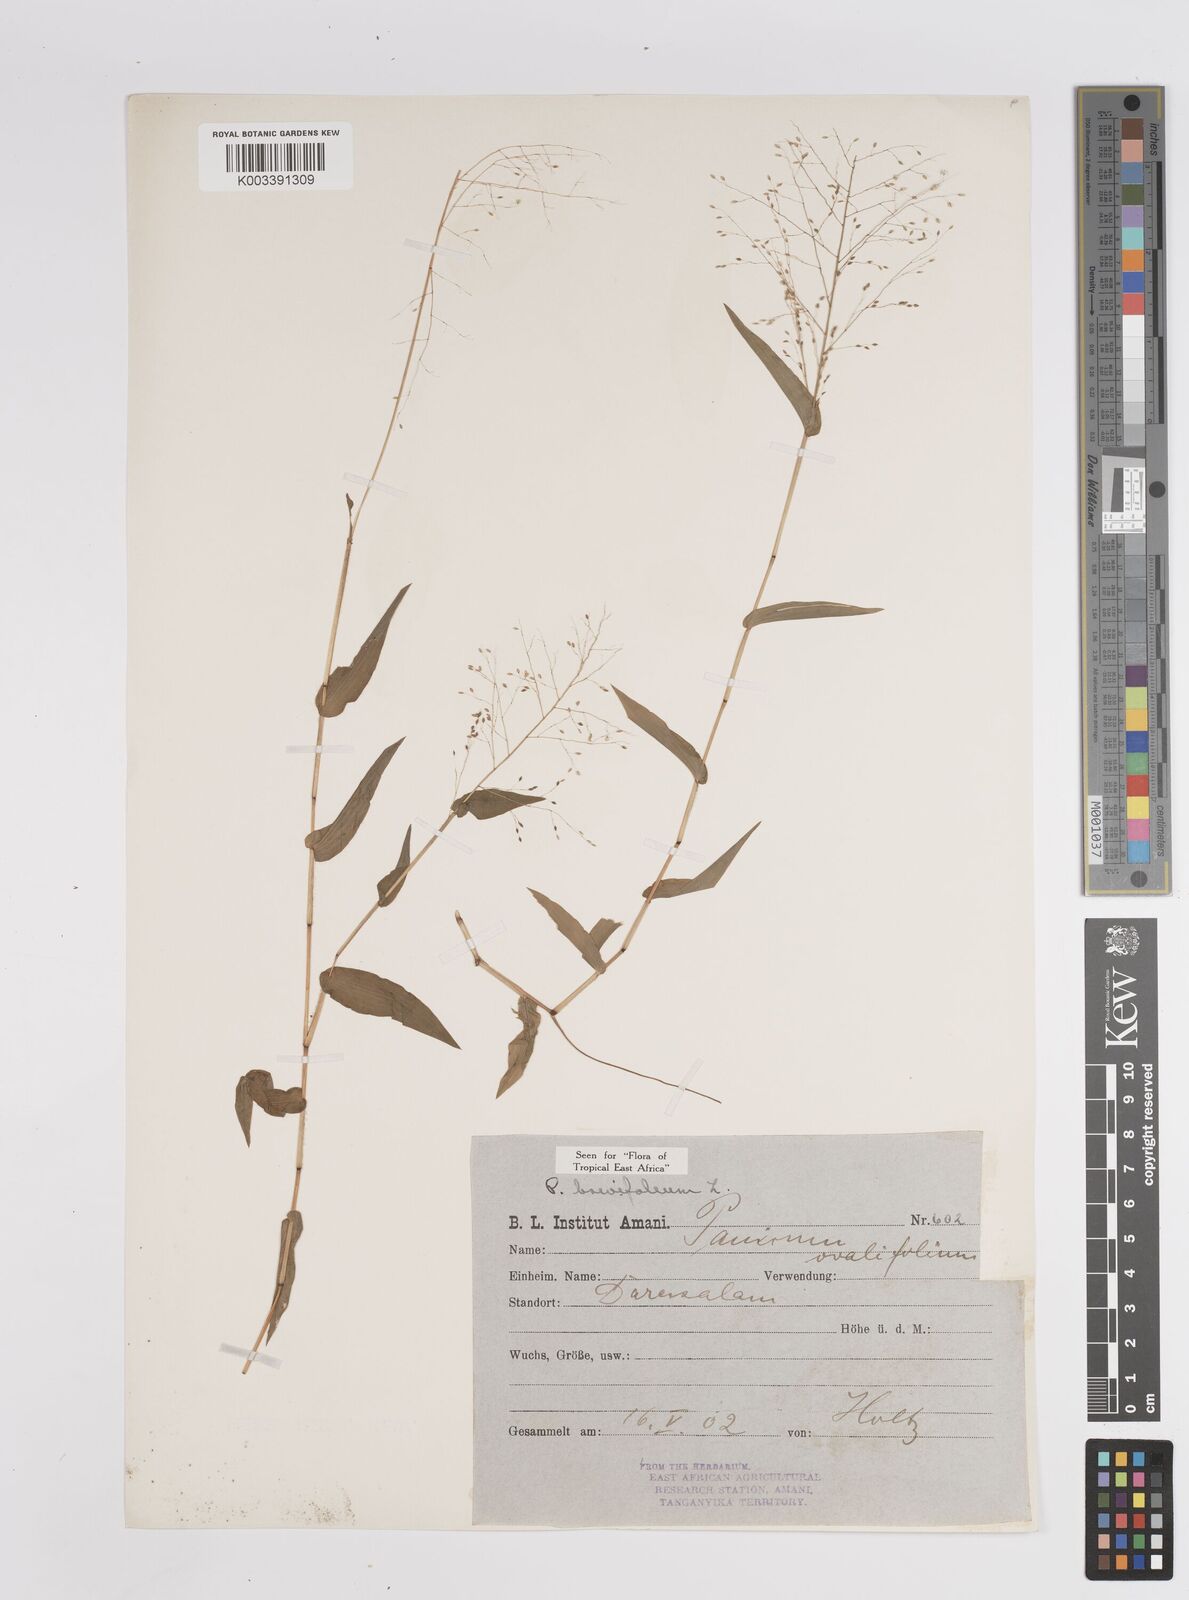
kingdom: Plantae
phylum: Tracheophyta
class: Liliopsida
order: Poales
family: Poaceae
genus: Panicum
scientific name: Panicum brevifolium
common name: Shortleaf panic grass
